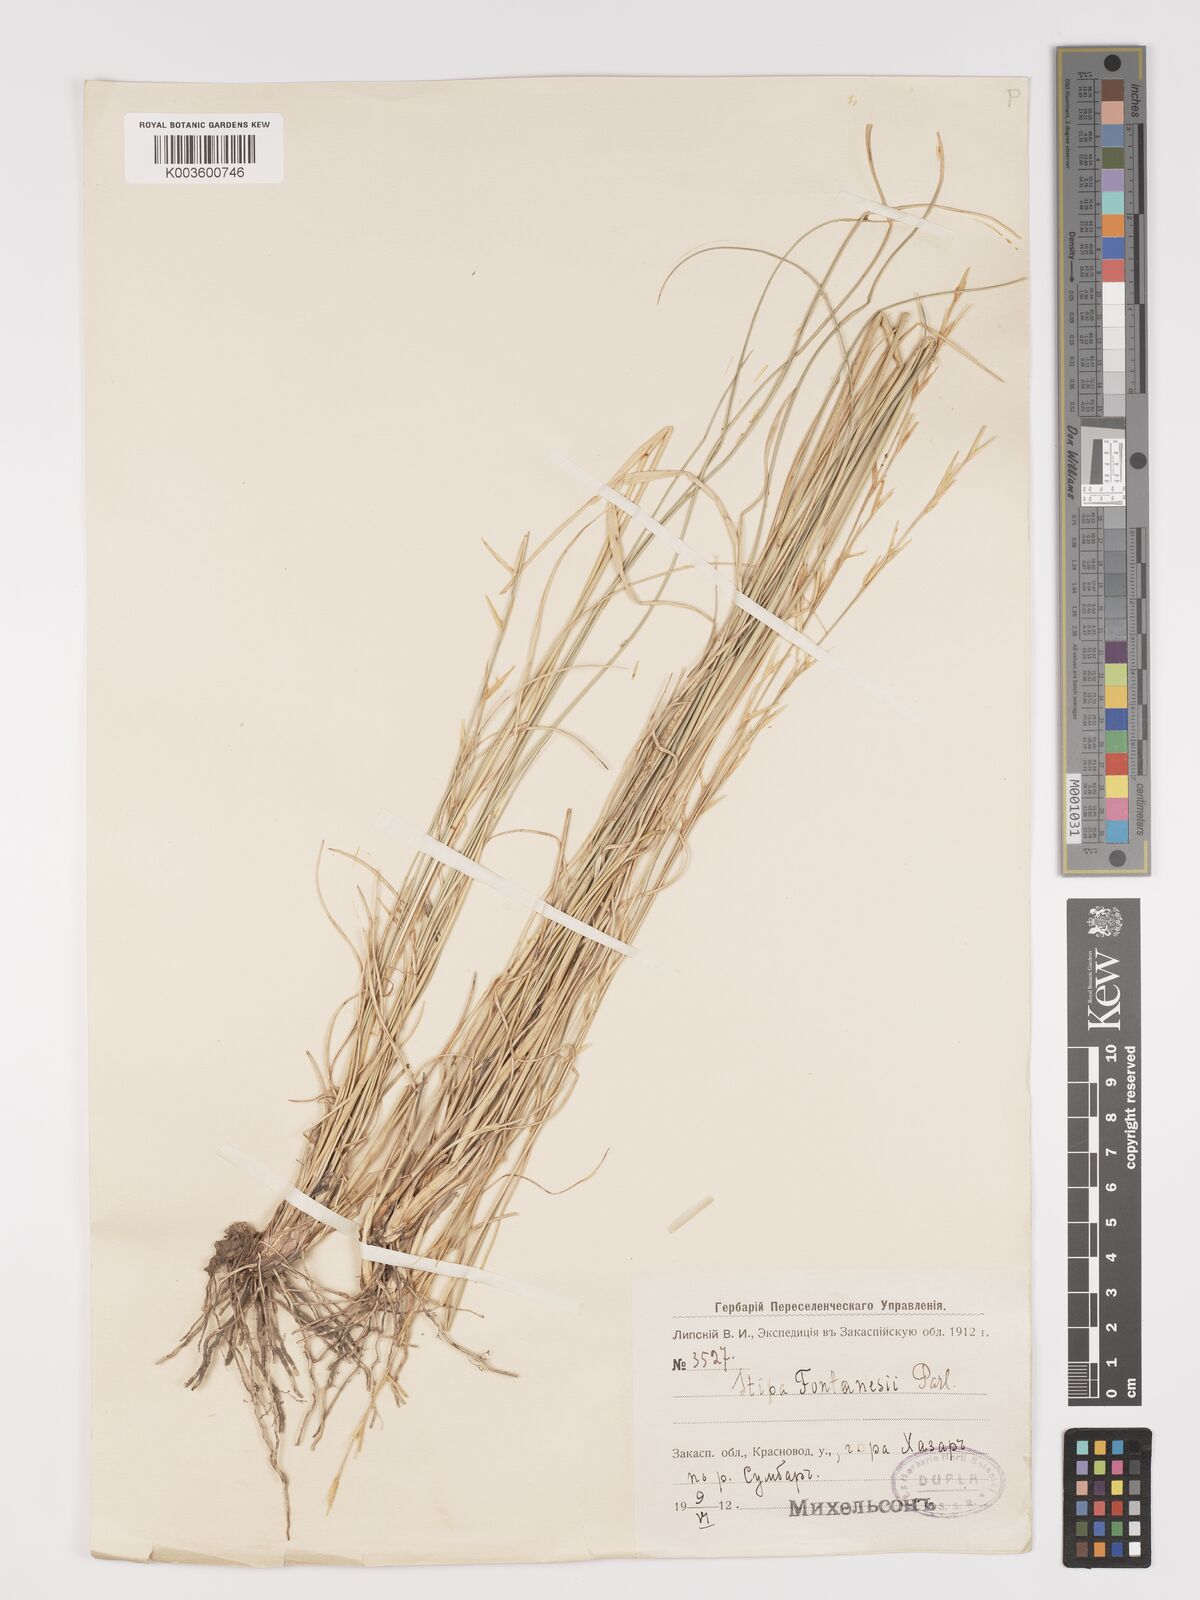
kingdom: Plantae
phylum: Tracheophyta
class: Liliopsida
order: Poales
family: Poaceae
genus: Stipa
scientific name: Stipa lagascae
